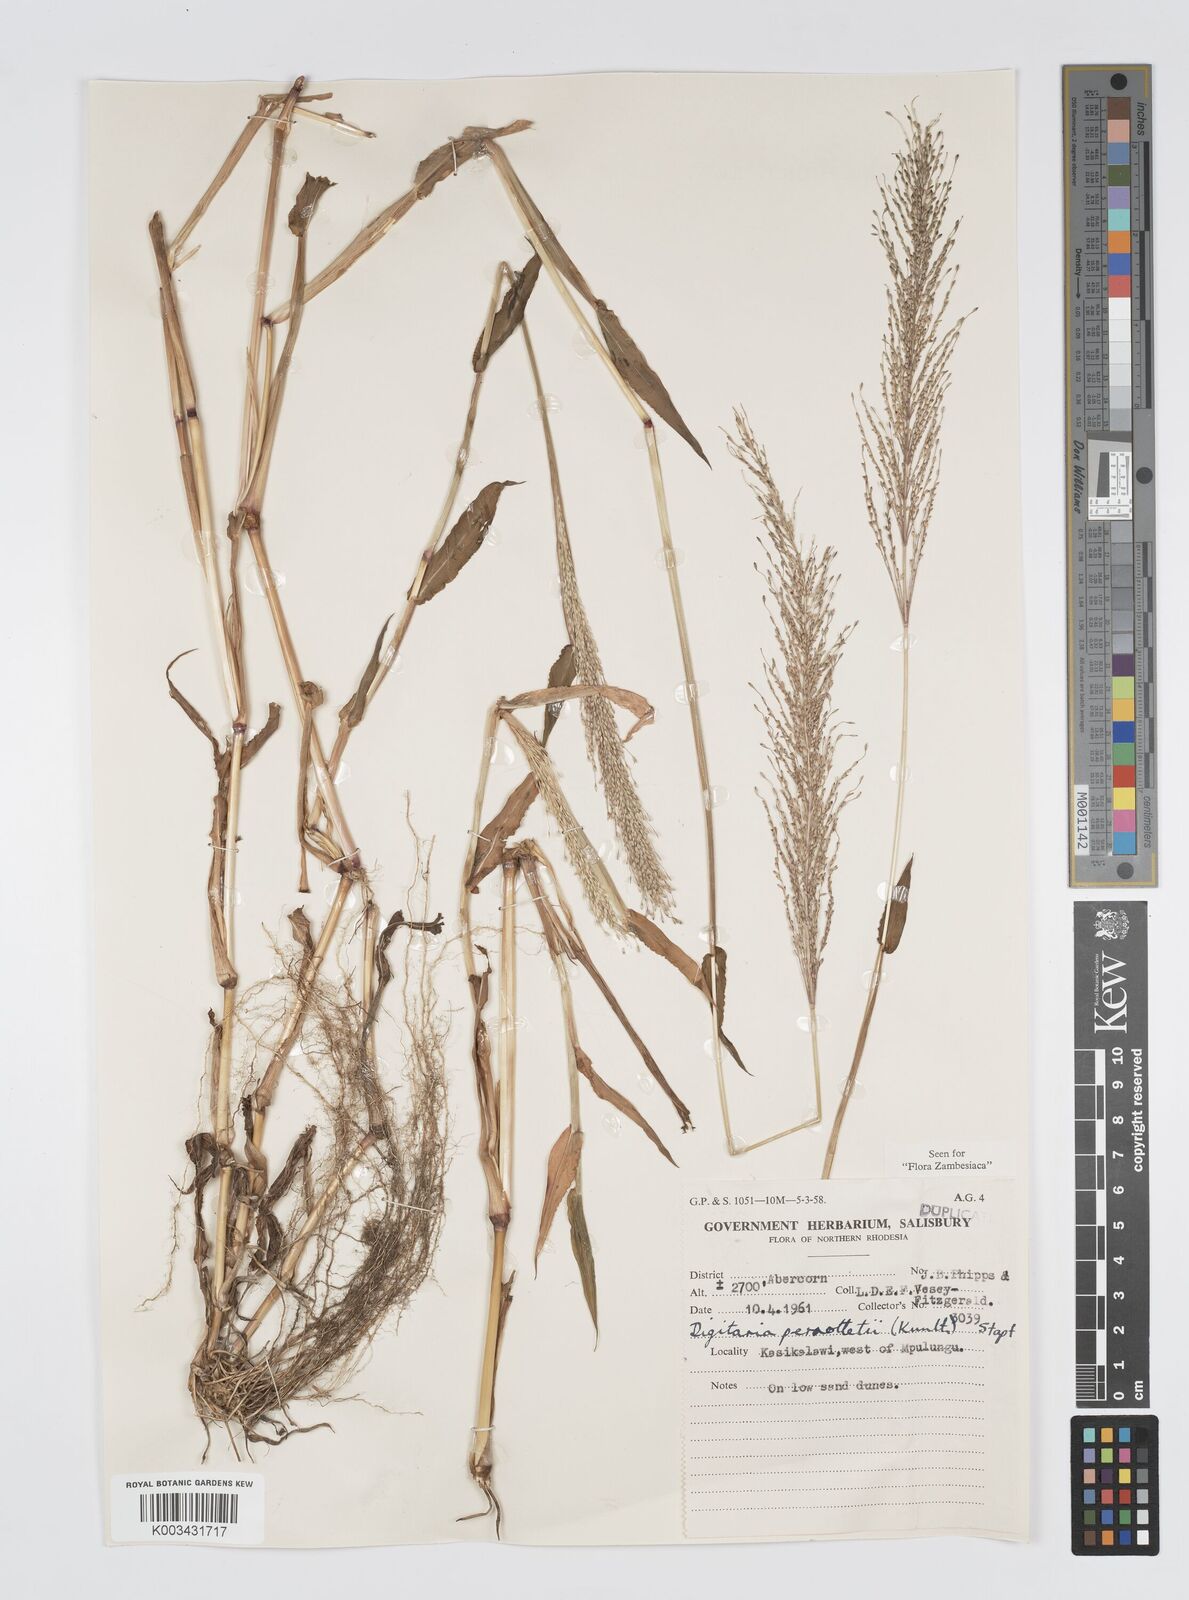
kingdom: Plantae
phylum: Tracheophyta
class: Liliopsida
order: Poales
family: Poaceae
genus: Digitaria
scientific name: Digitaria perrottetii
